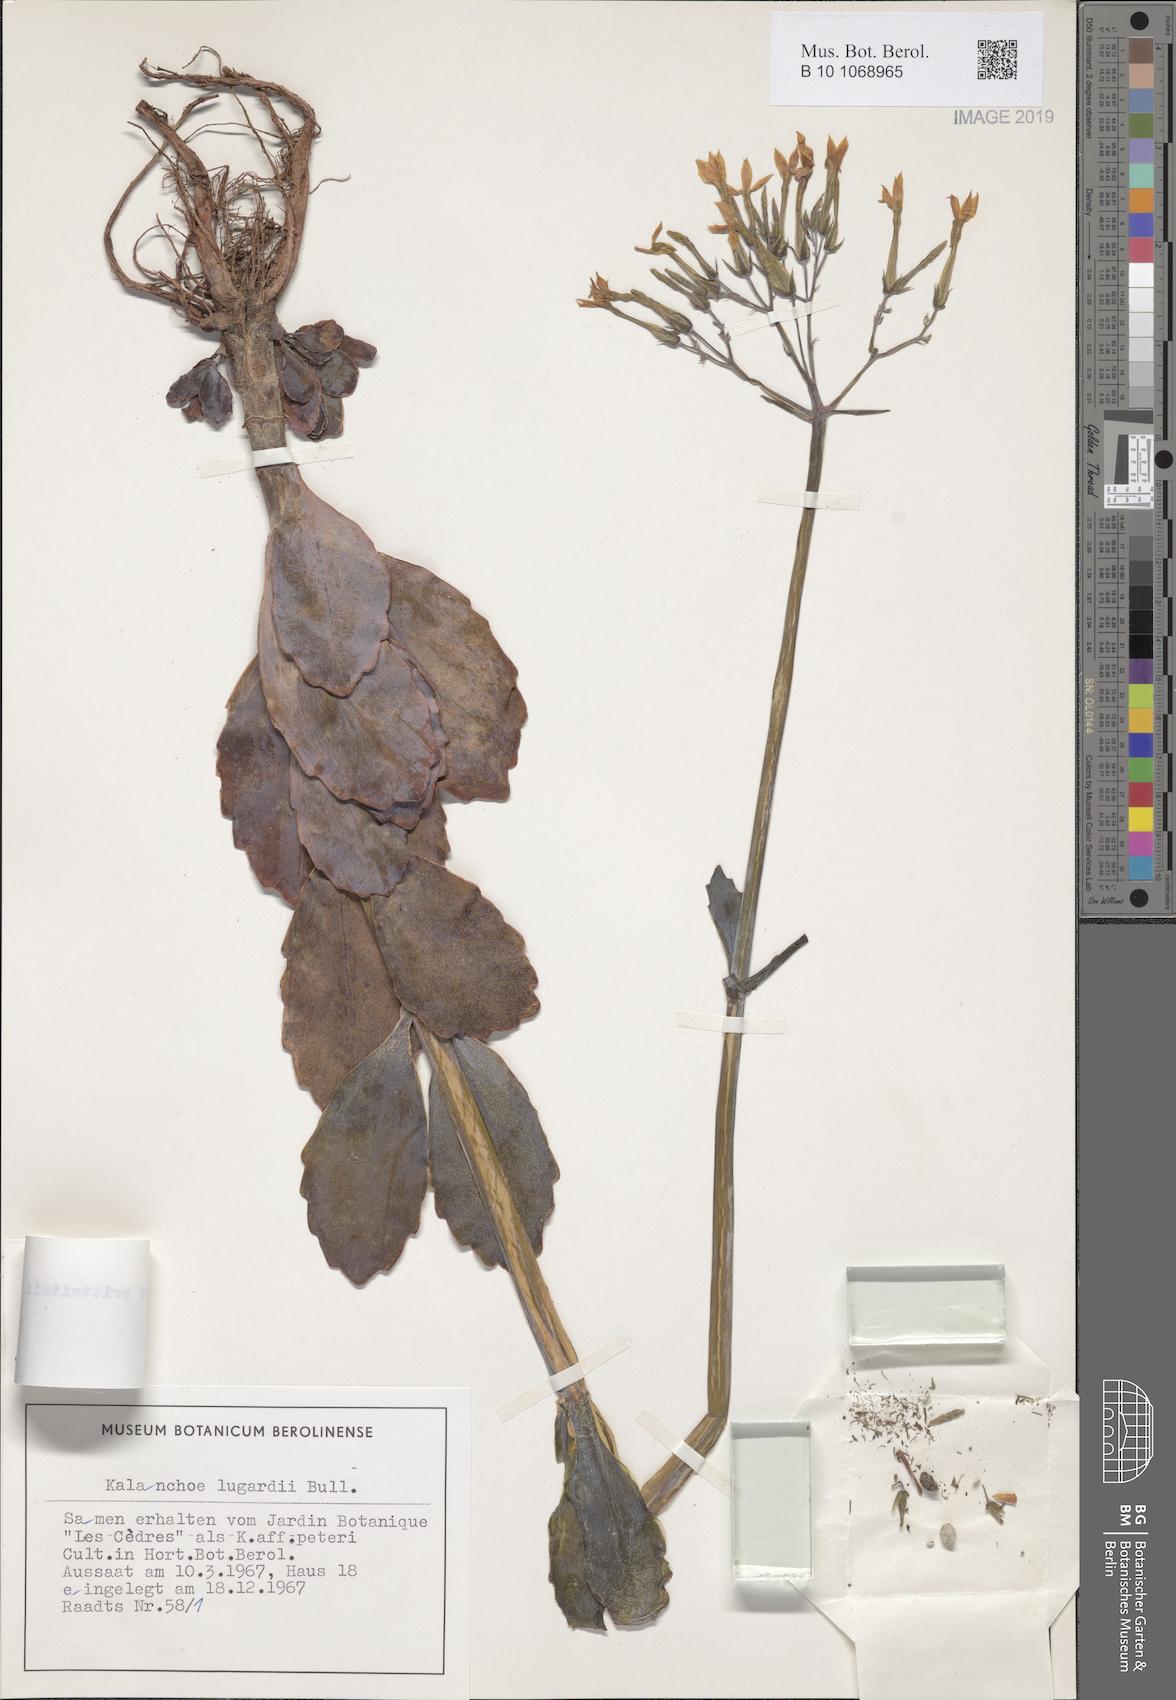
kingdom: Plantae
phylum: Tracheophyta
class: Magnoliopsida
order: Saxifragales
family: Crassulaceae
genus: Kalanchoe
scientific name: Kalanchoe prittwitzii
